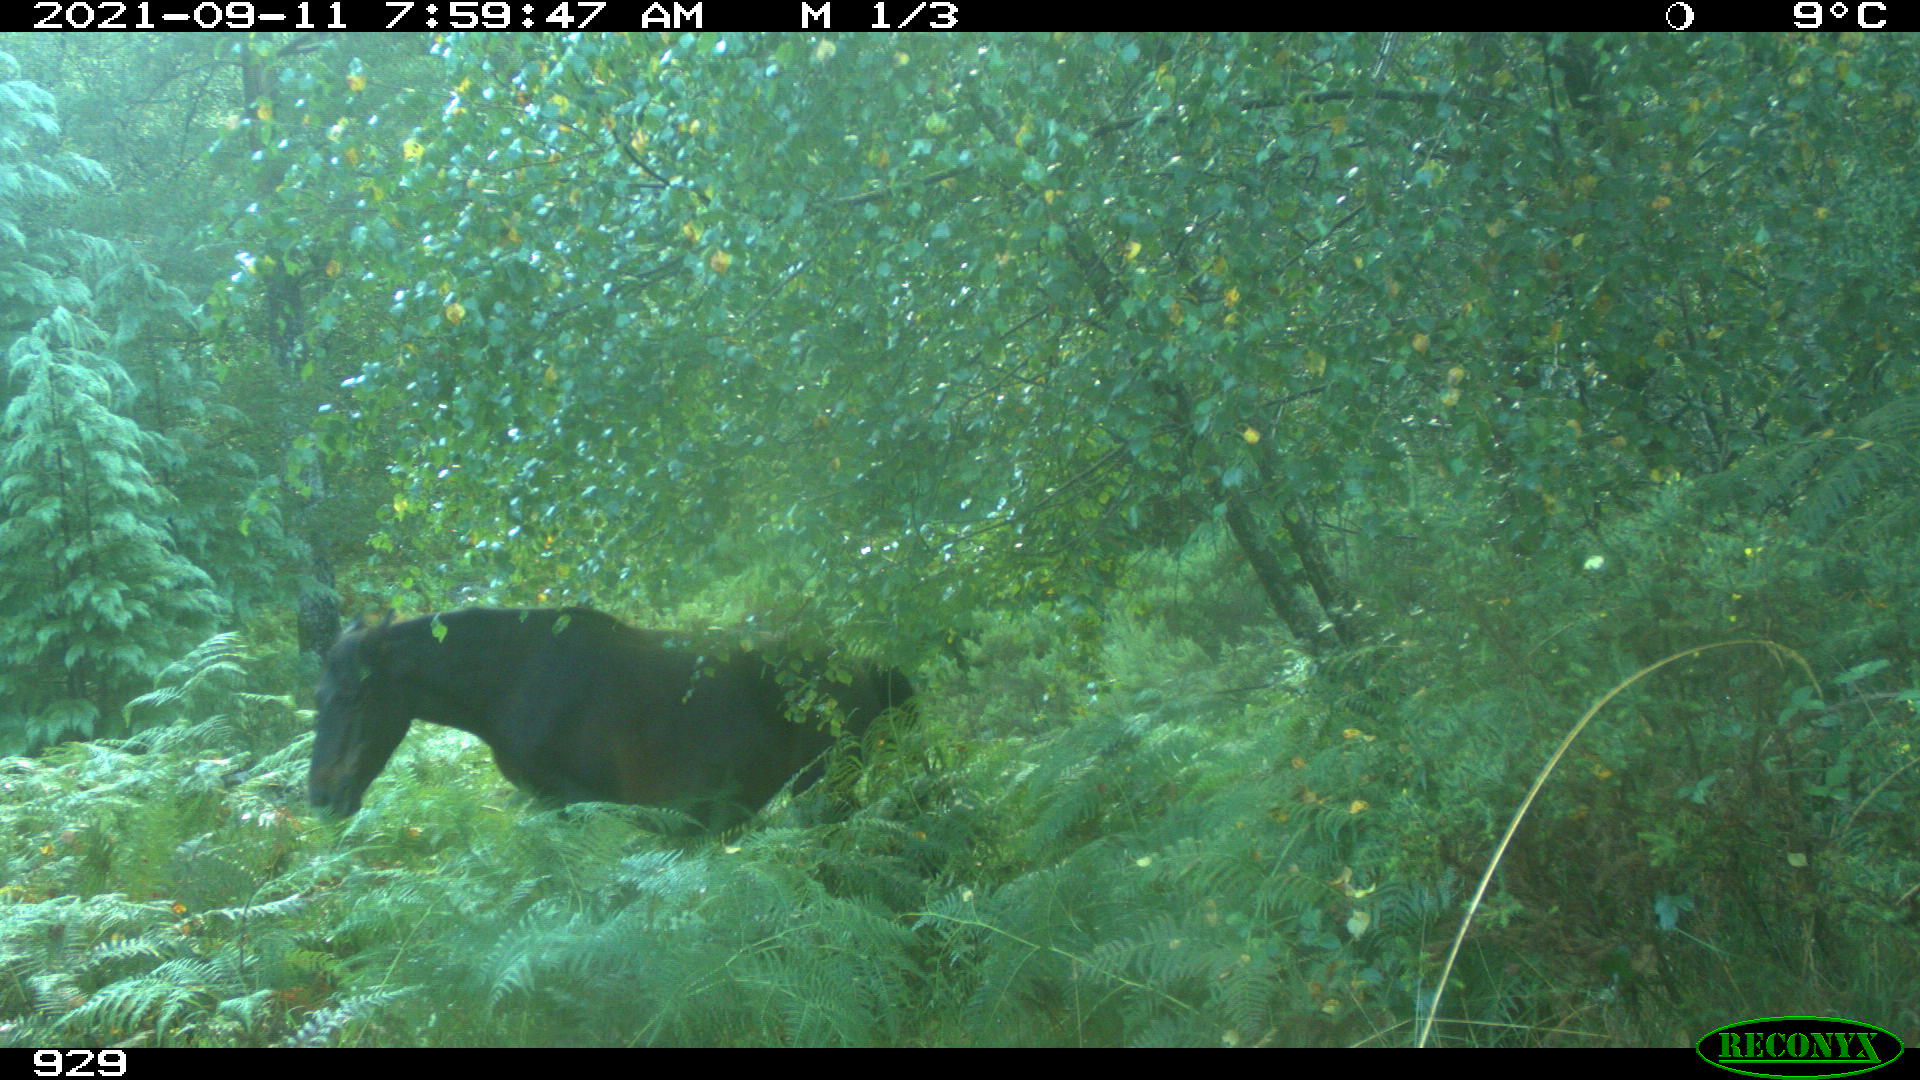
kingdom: Animalia
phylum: Chordata
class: Mammalia
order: Perissodactyla
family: Equidae
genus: Equus
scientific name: Equus caballus
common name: Horse
